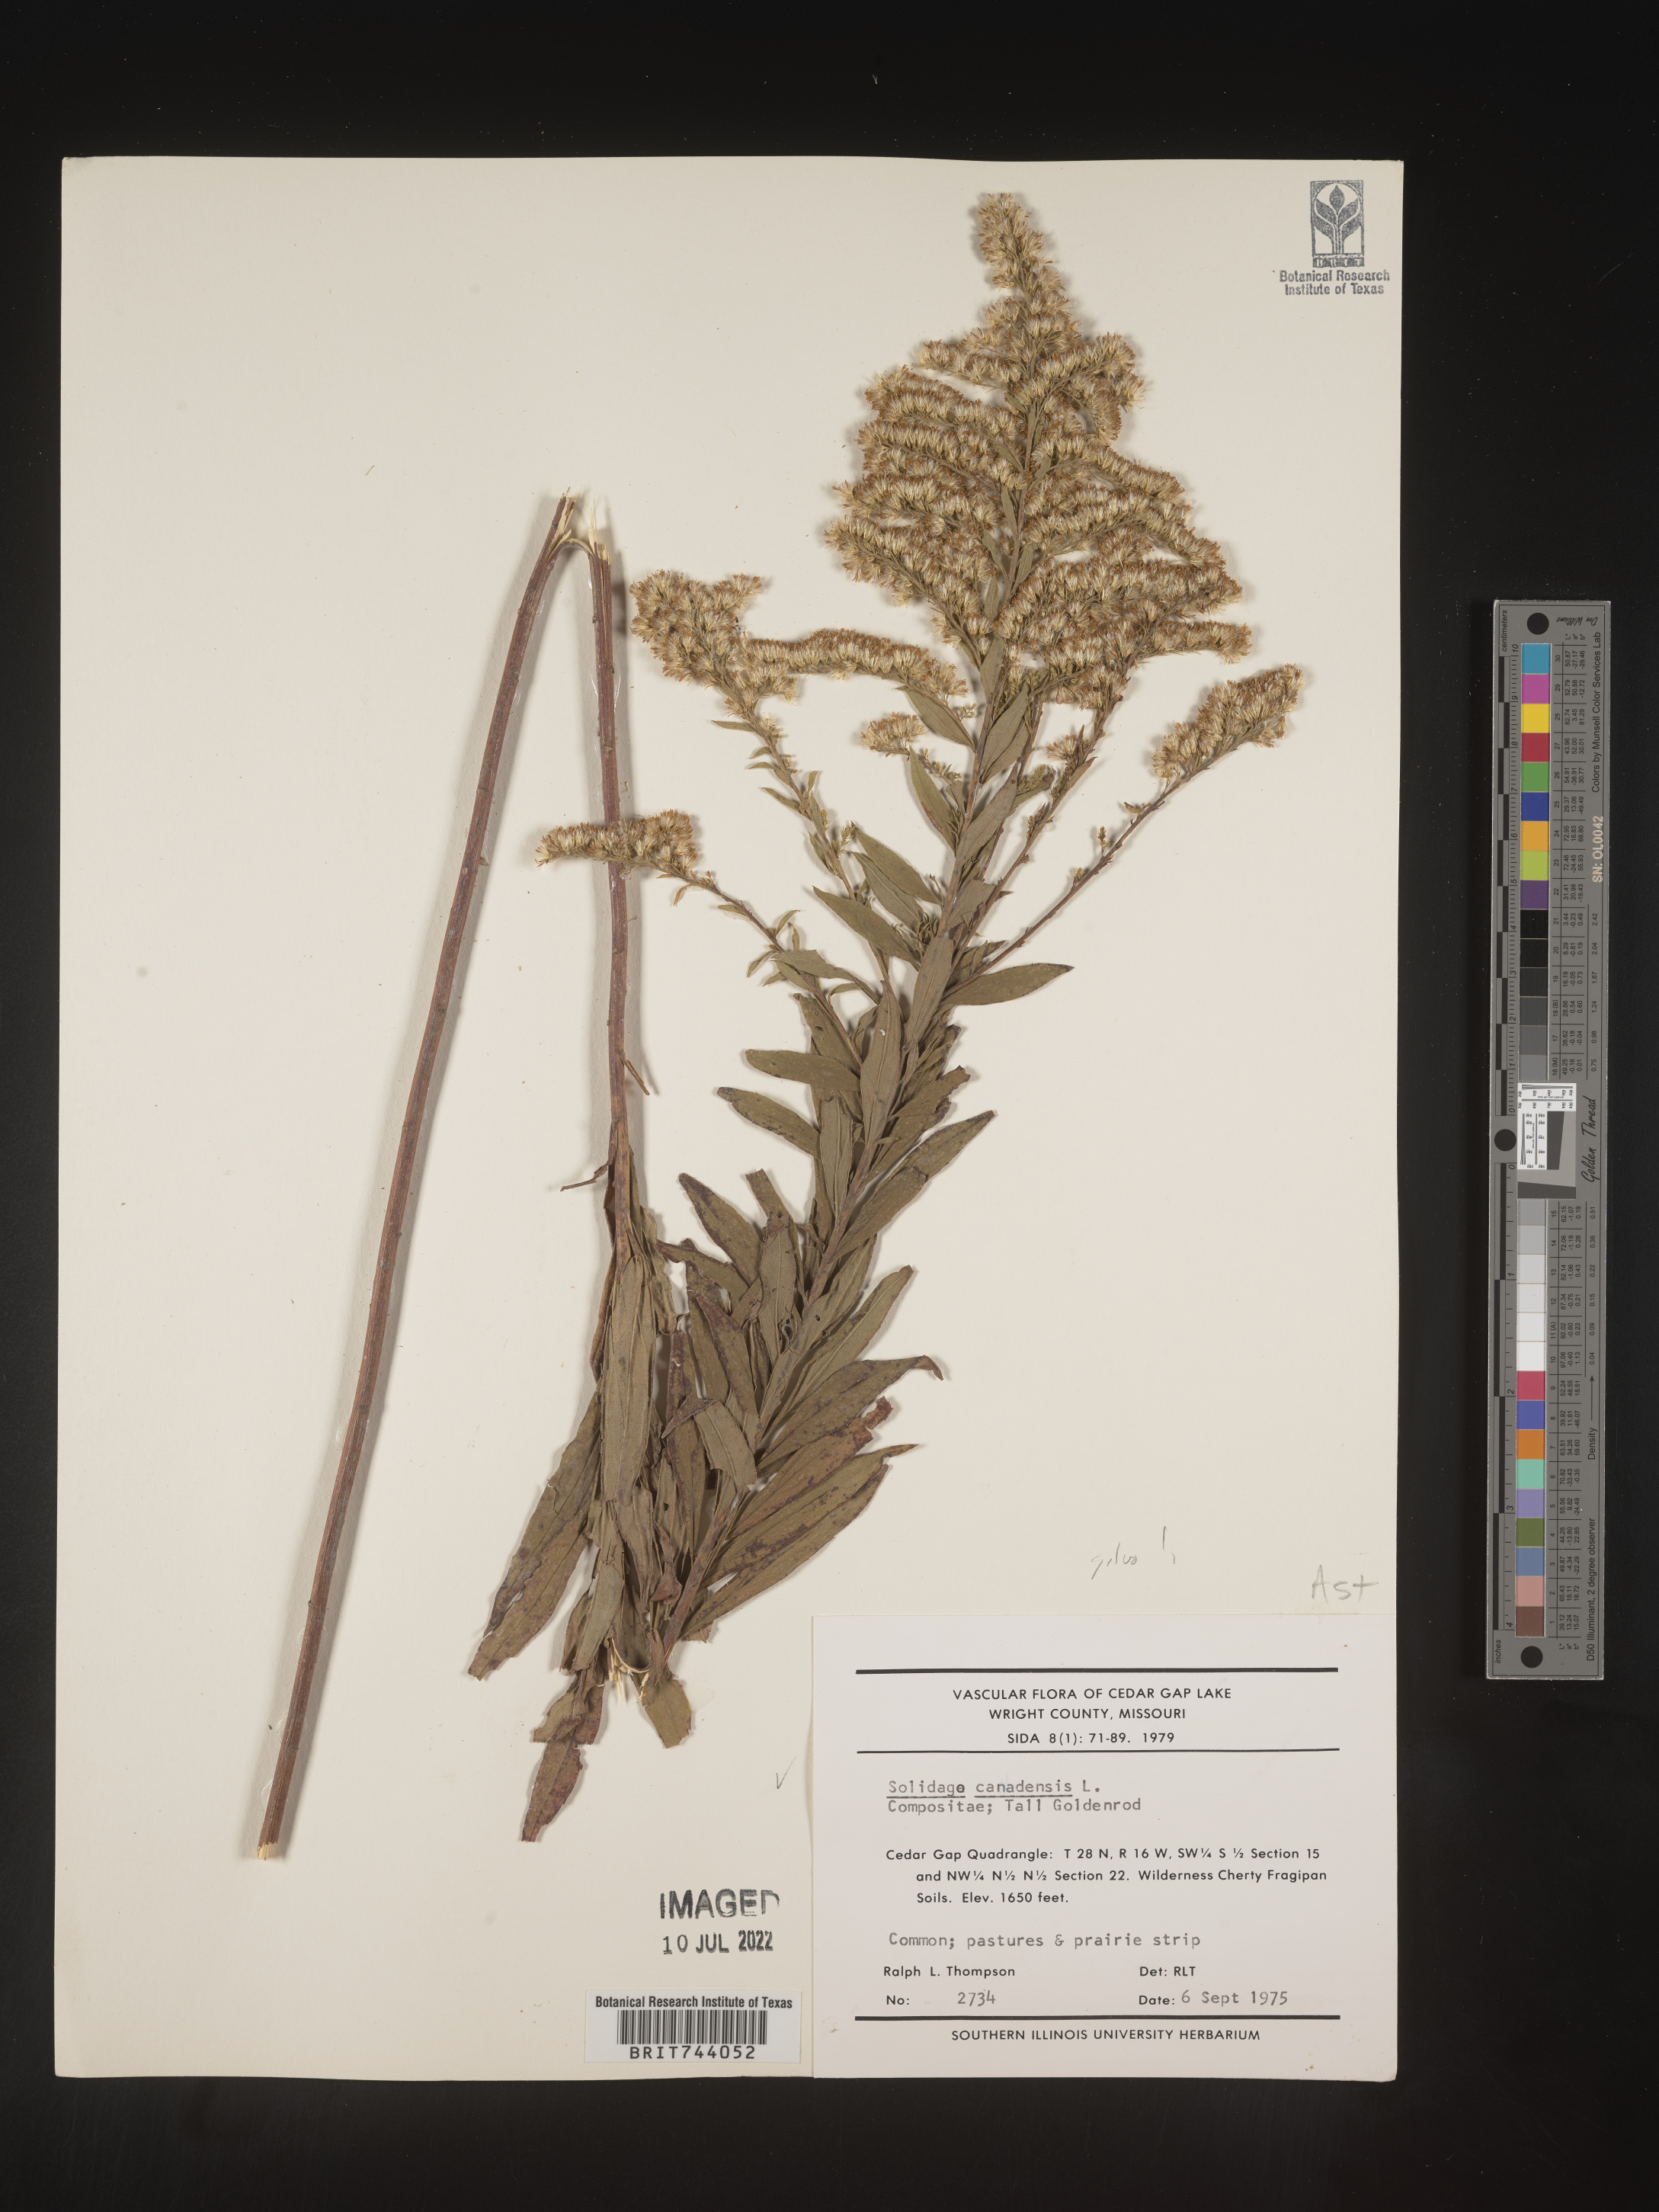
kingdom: Plantae
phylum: Tracheophyta
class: Magnoliopsida
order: Asterales
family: Asteraceae
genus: Solidago
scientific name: Solidago altissima
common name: Late goldenrod
